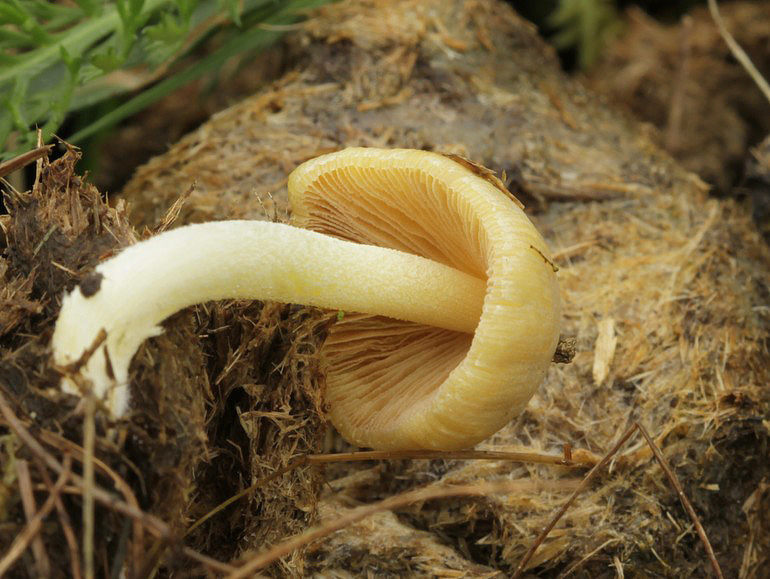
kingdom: Fungi
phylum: Basidiomycota
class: Agaricomycetes
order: Agaricales
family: Bolbitiaceae
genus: Bolbitius
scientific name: Bolbitius titubans
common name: almindelig gulhat
